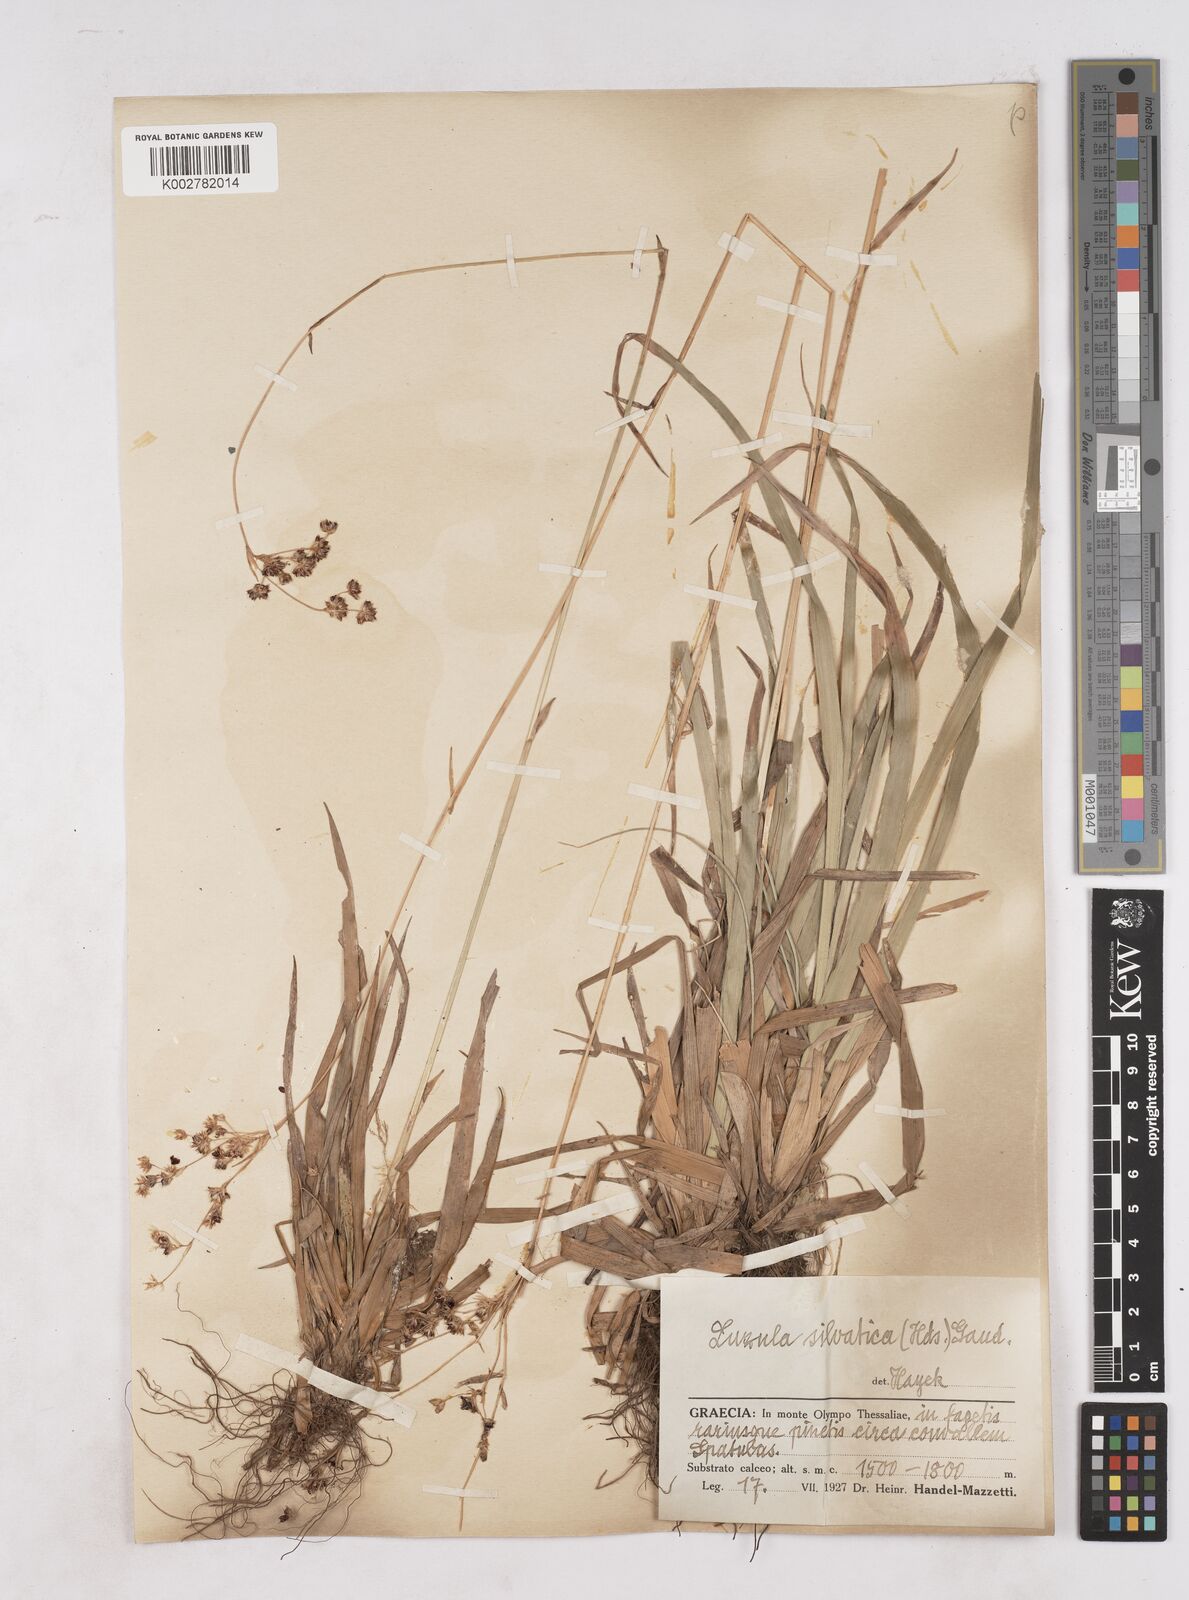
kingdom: Plantae
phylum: Tracheophyta
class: Liliopsida
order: Poales
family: Juncaceae
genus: Luzula
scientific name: Luzula sylvatica
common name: Great wood-rush
